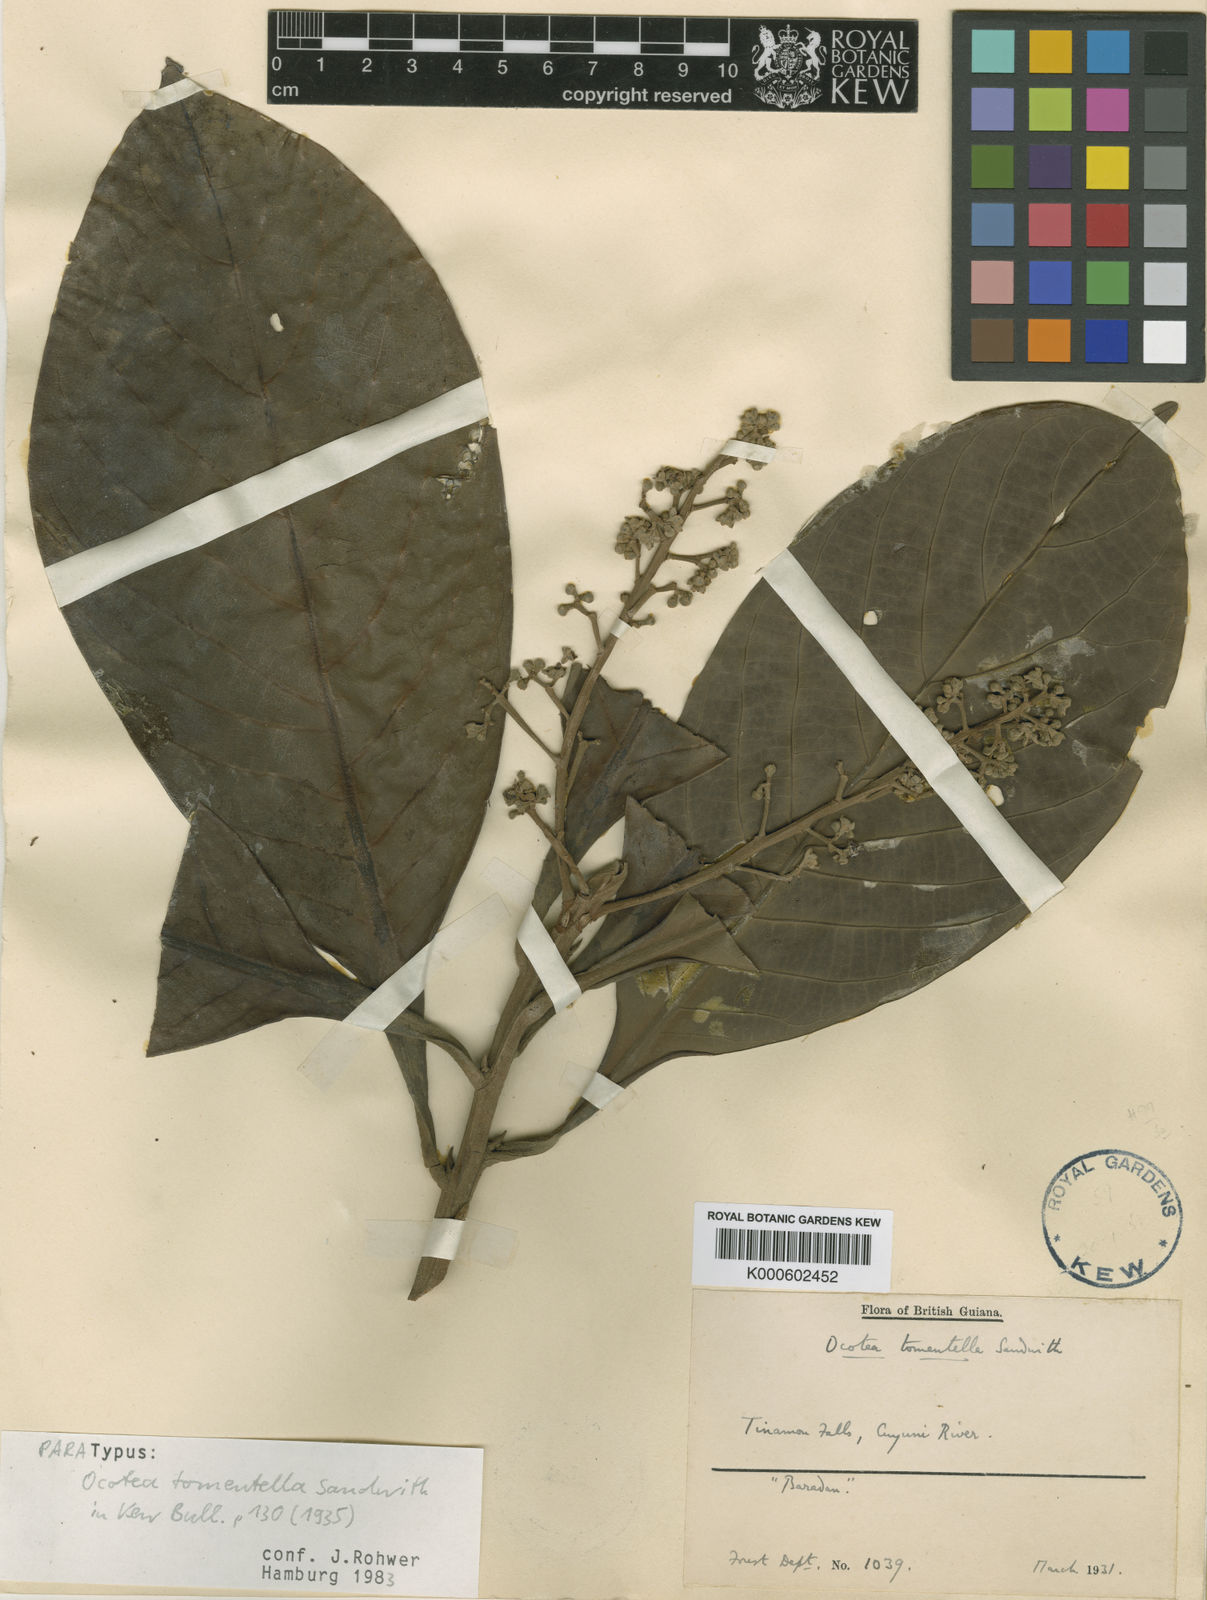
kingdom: Plantae
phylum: Tracheophyta
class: Magnoliopsida
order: Laurales
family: Lauraceae
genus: Ocotea
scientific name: Ocotea tomentella
